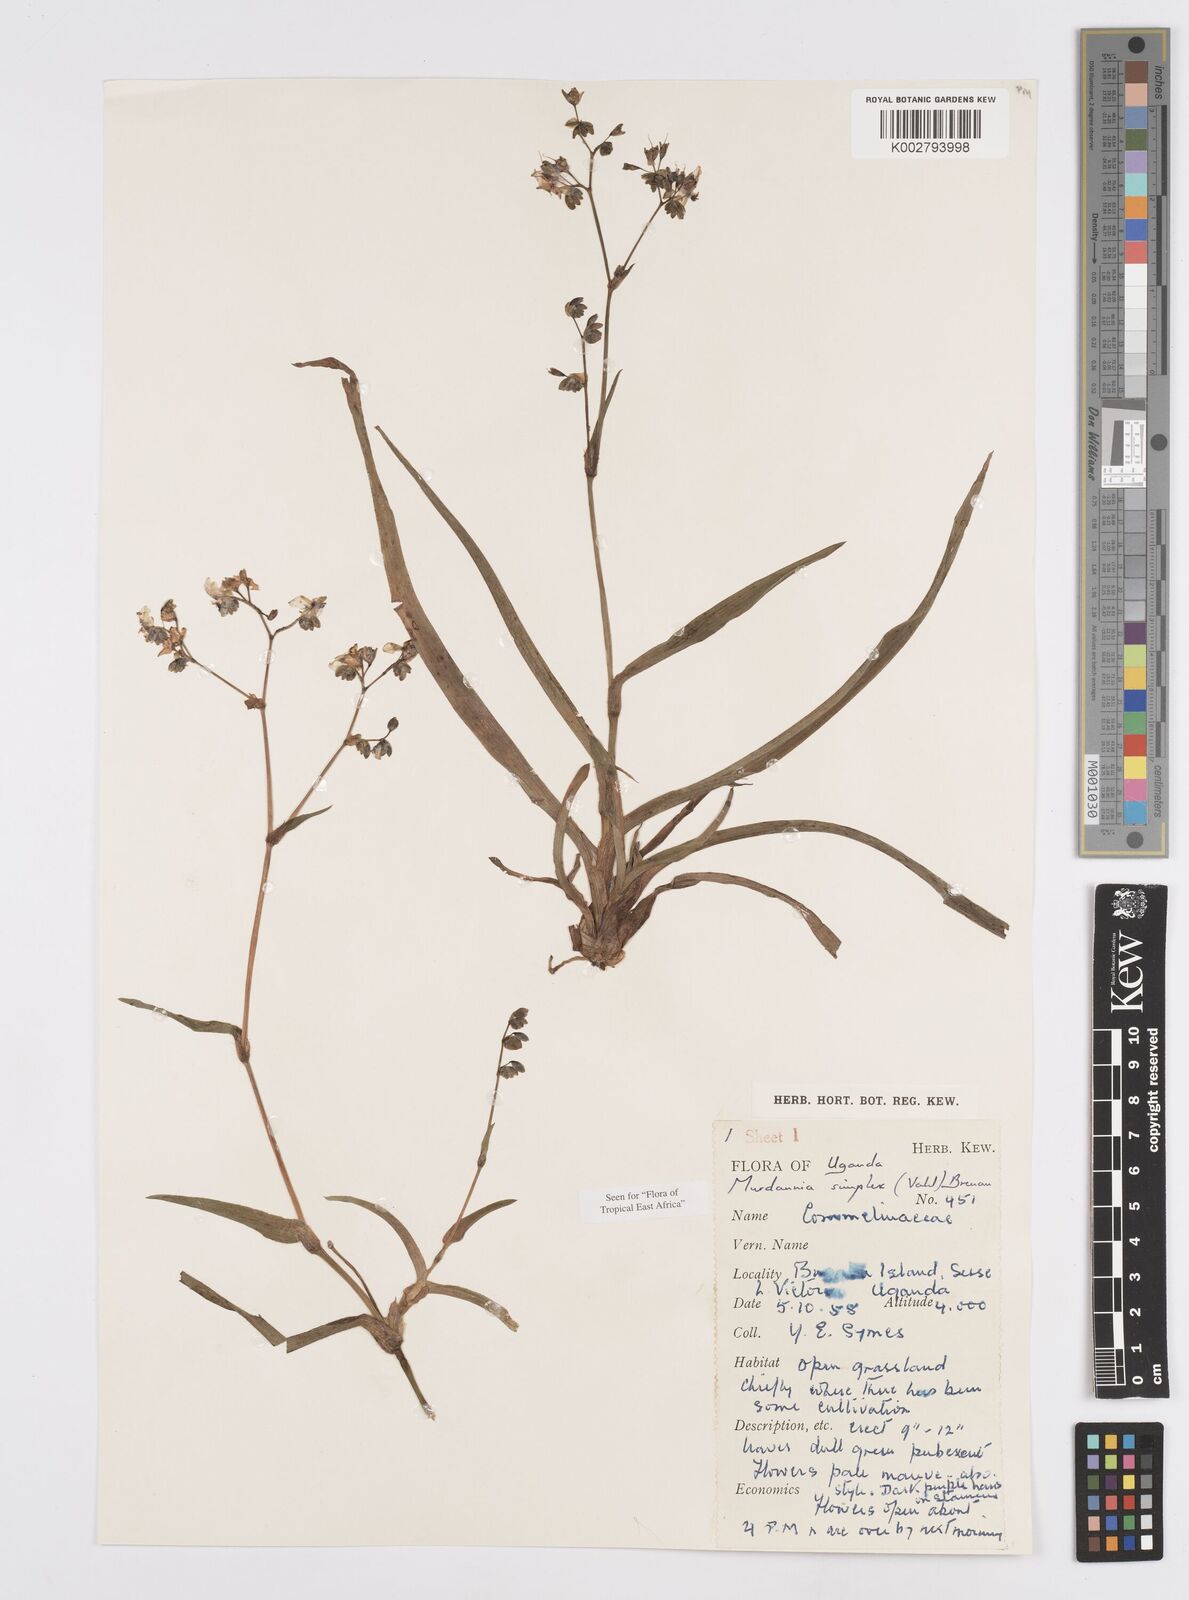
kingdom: Plantae
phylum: Tracheophyta
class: Liliopsida
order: Commelinales
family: Commelinaceae
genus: Murdannia
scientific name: Murdannia simplex
